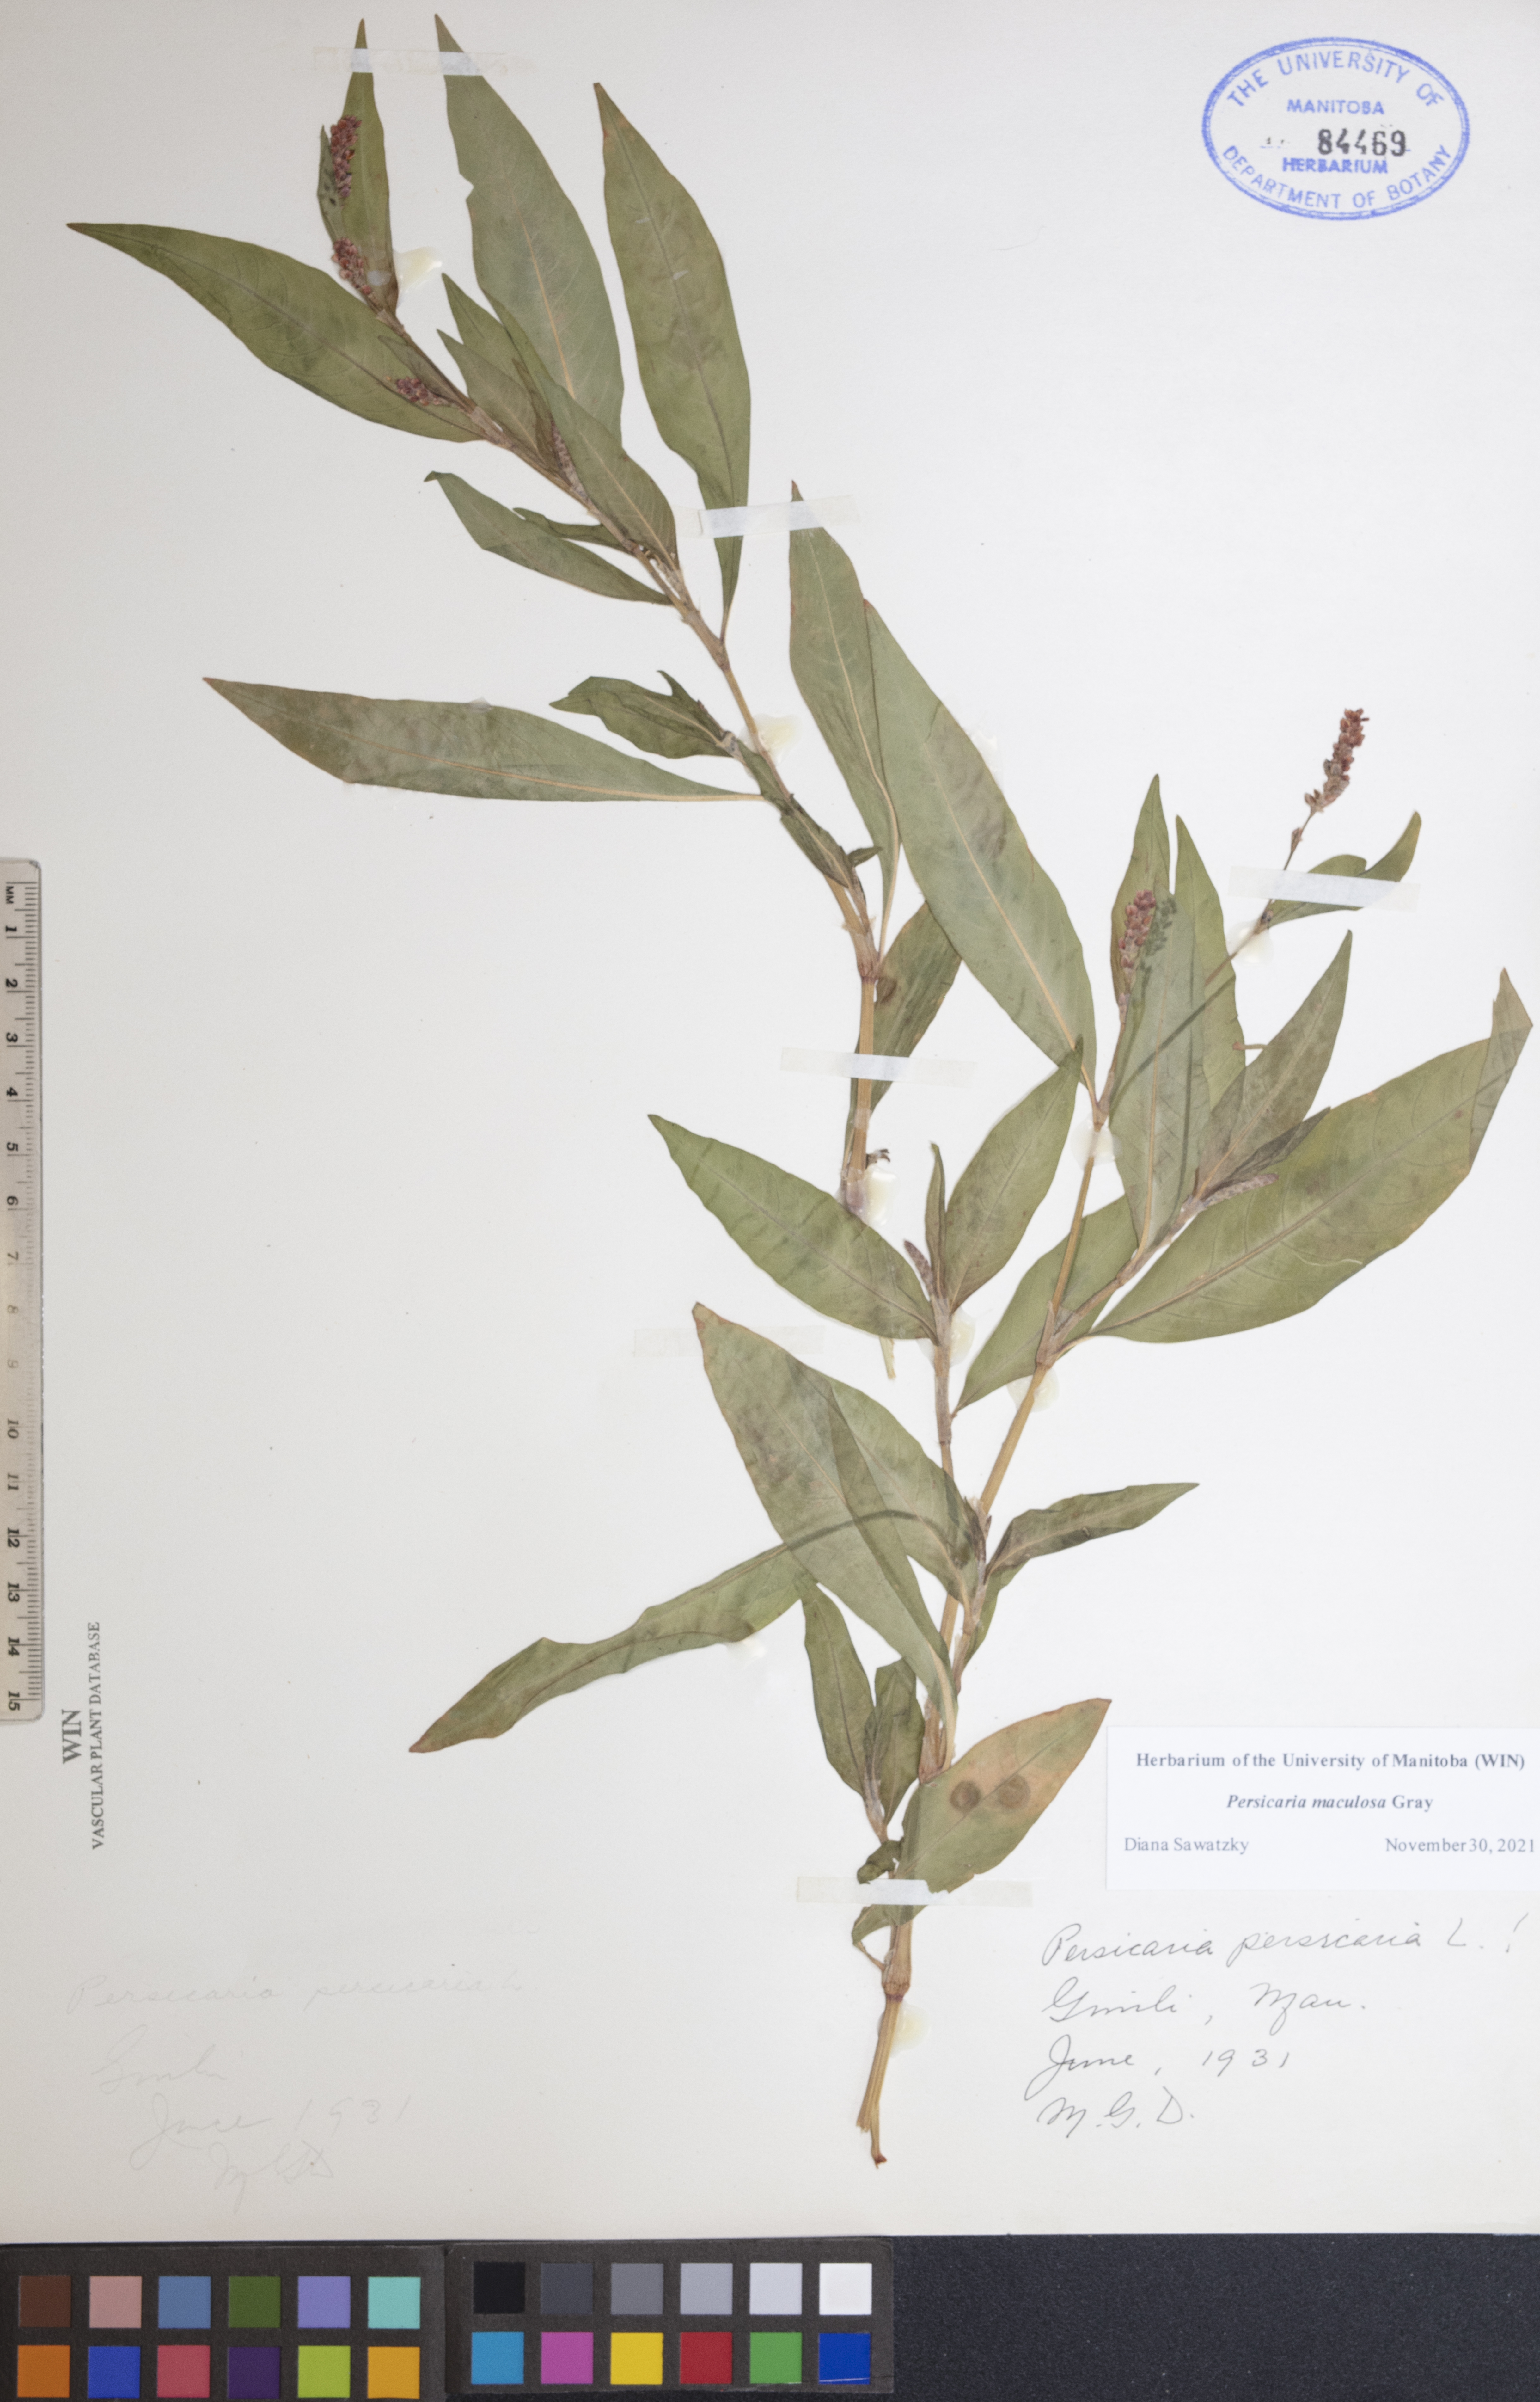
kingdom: Plantae
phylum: Tracheophyta
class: Magnoliopsida
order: Caryophyllales
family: Polygonaceae
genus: Persicaria
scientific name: Persicaria maculosa
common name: Redshank
